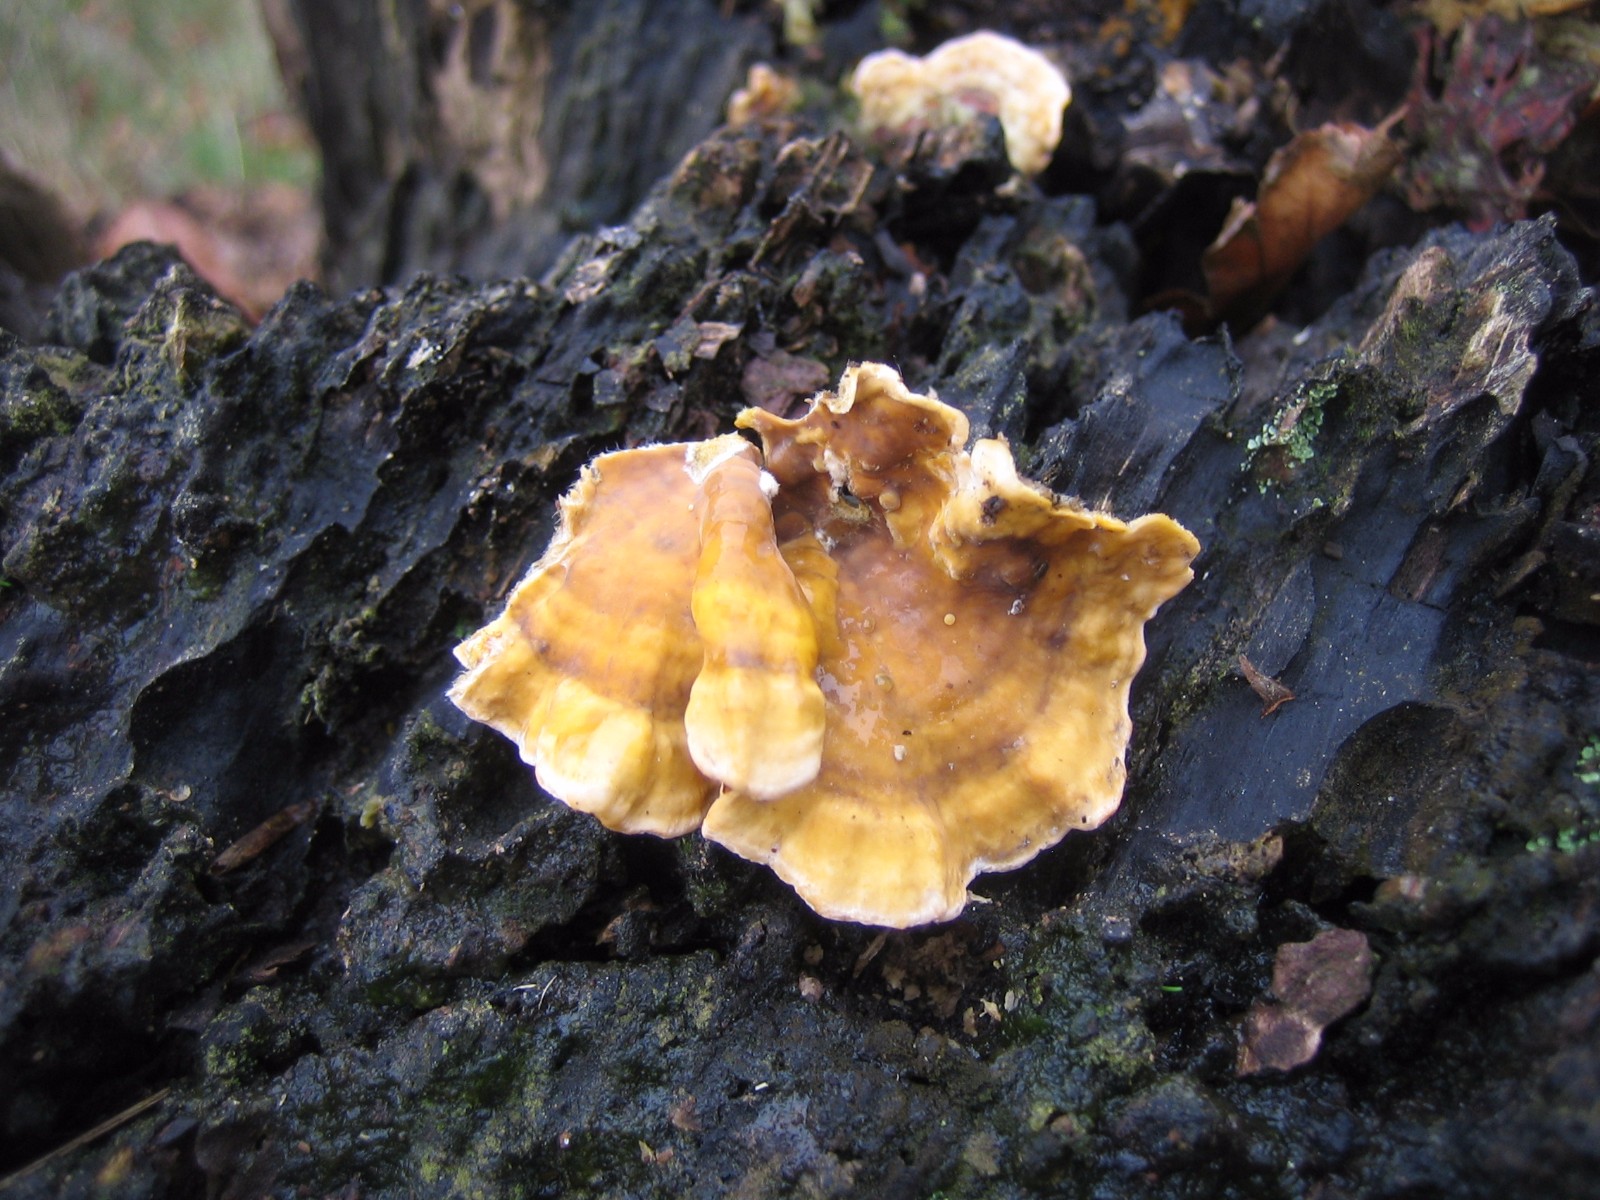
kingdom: Fungi
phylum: Basidiomycota
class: Agaricomycetes
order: Russulales
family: Stereaceae
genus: Stereum
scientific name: Stereum hirsutum
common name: håret lædersvamp
